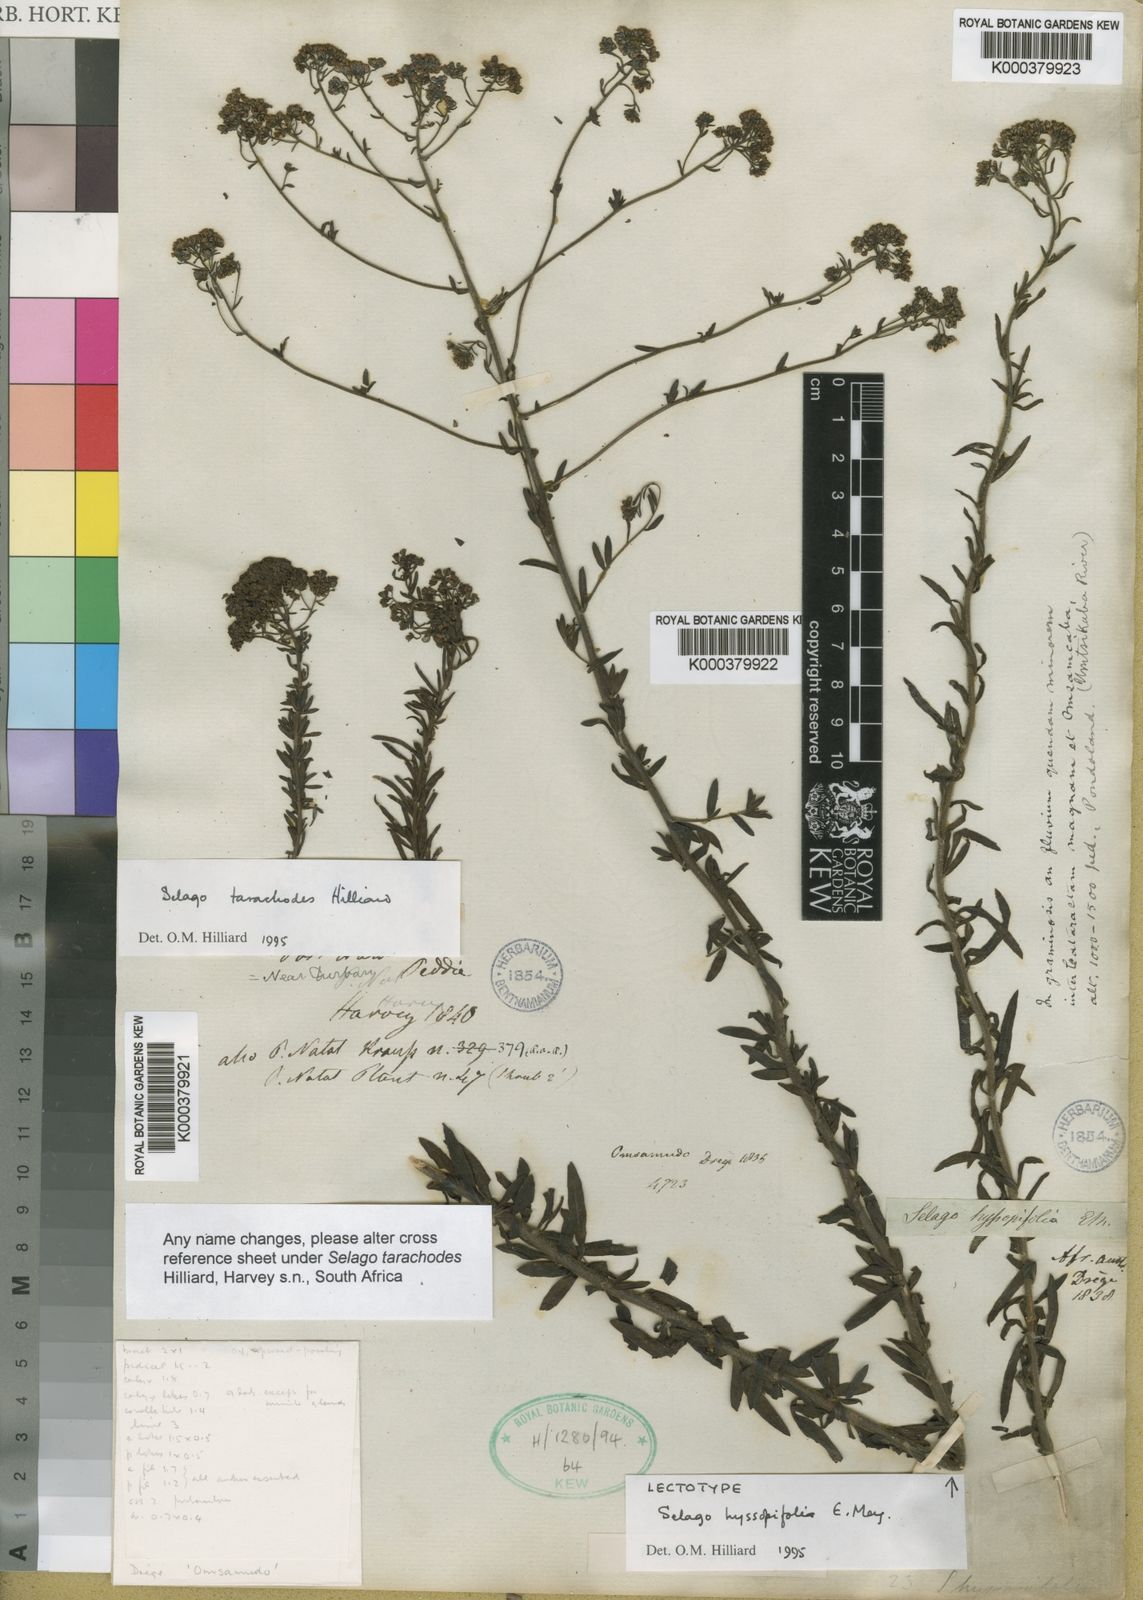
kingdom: Plantae
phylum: Tracheophyta
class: Magnoliopsida
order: Lamiales
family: Scrophulariaceae
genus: Selago
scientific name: Selago hyssopifolia
